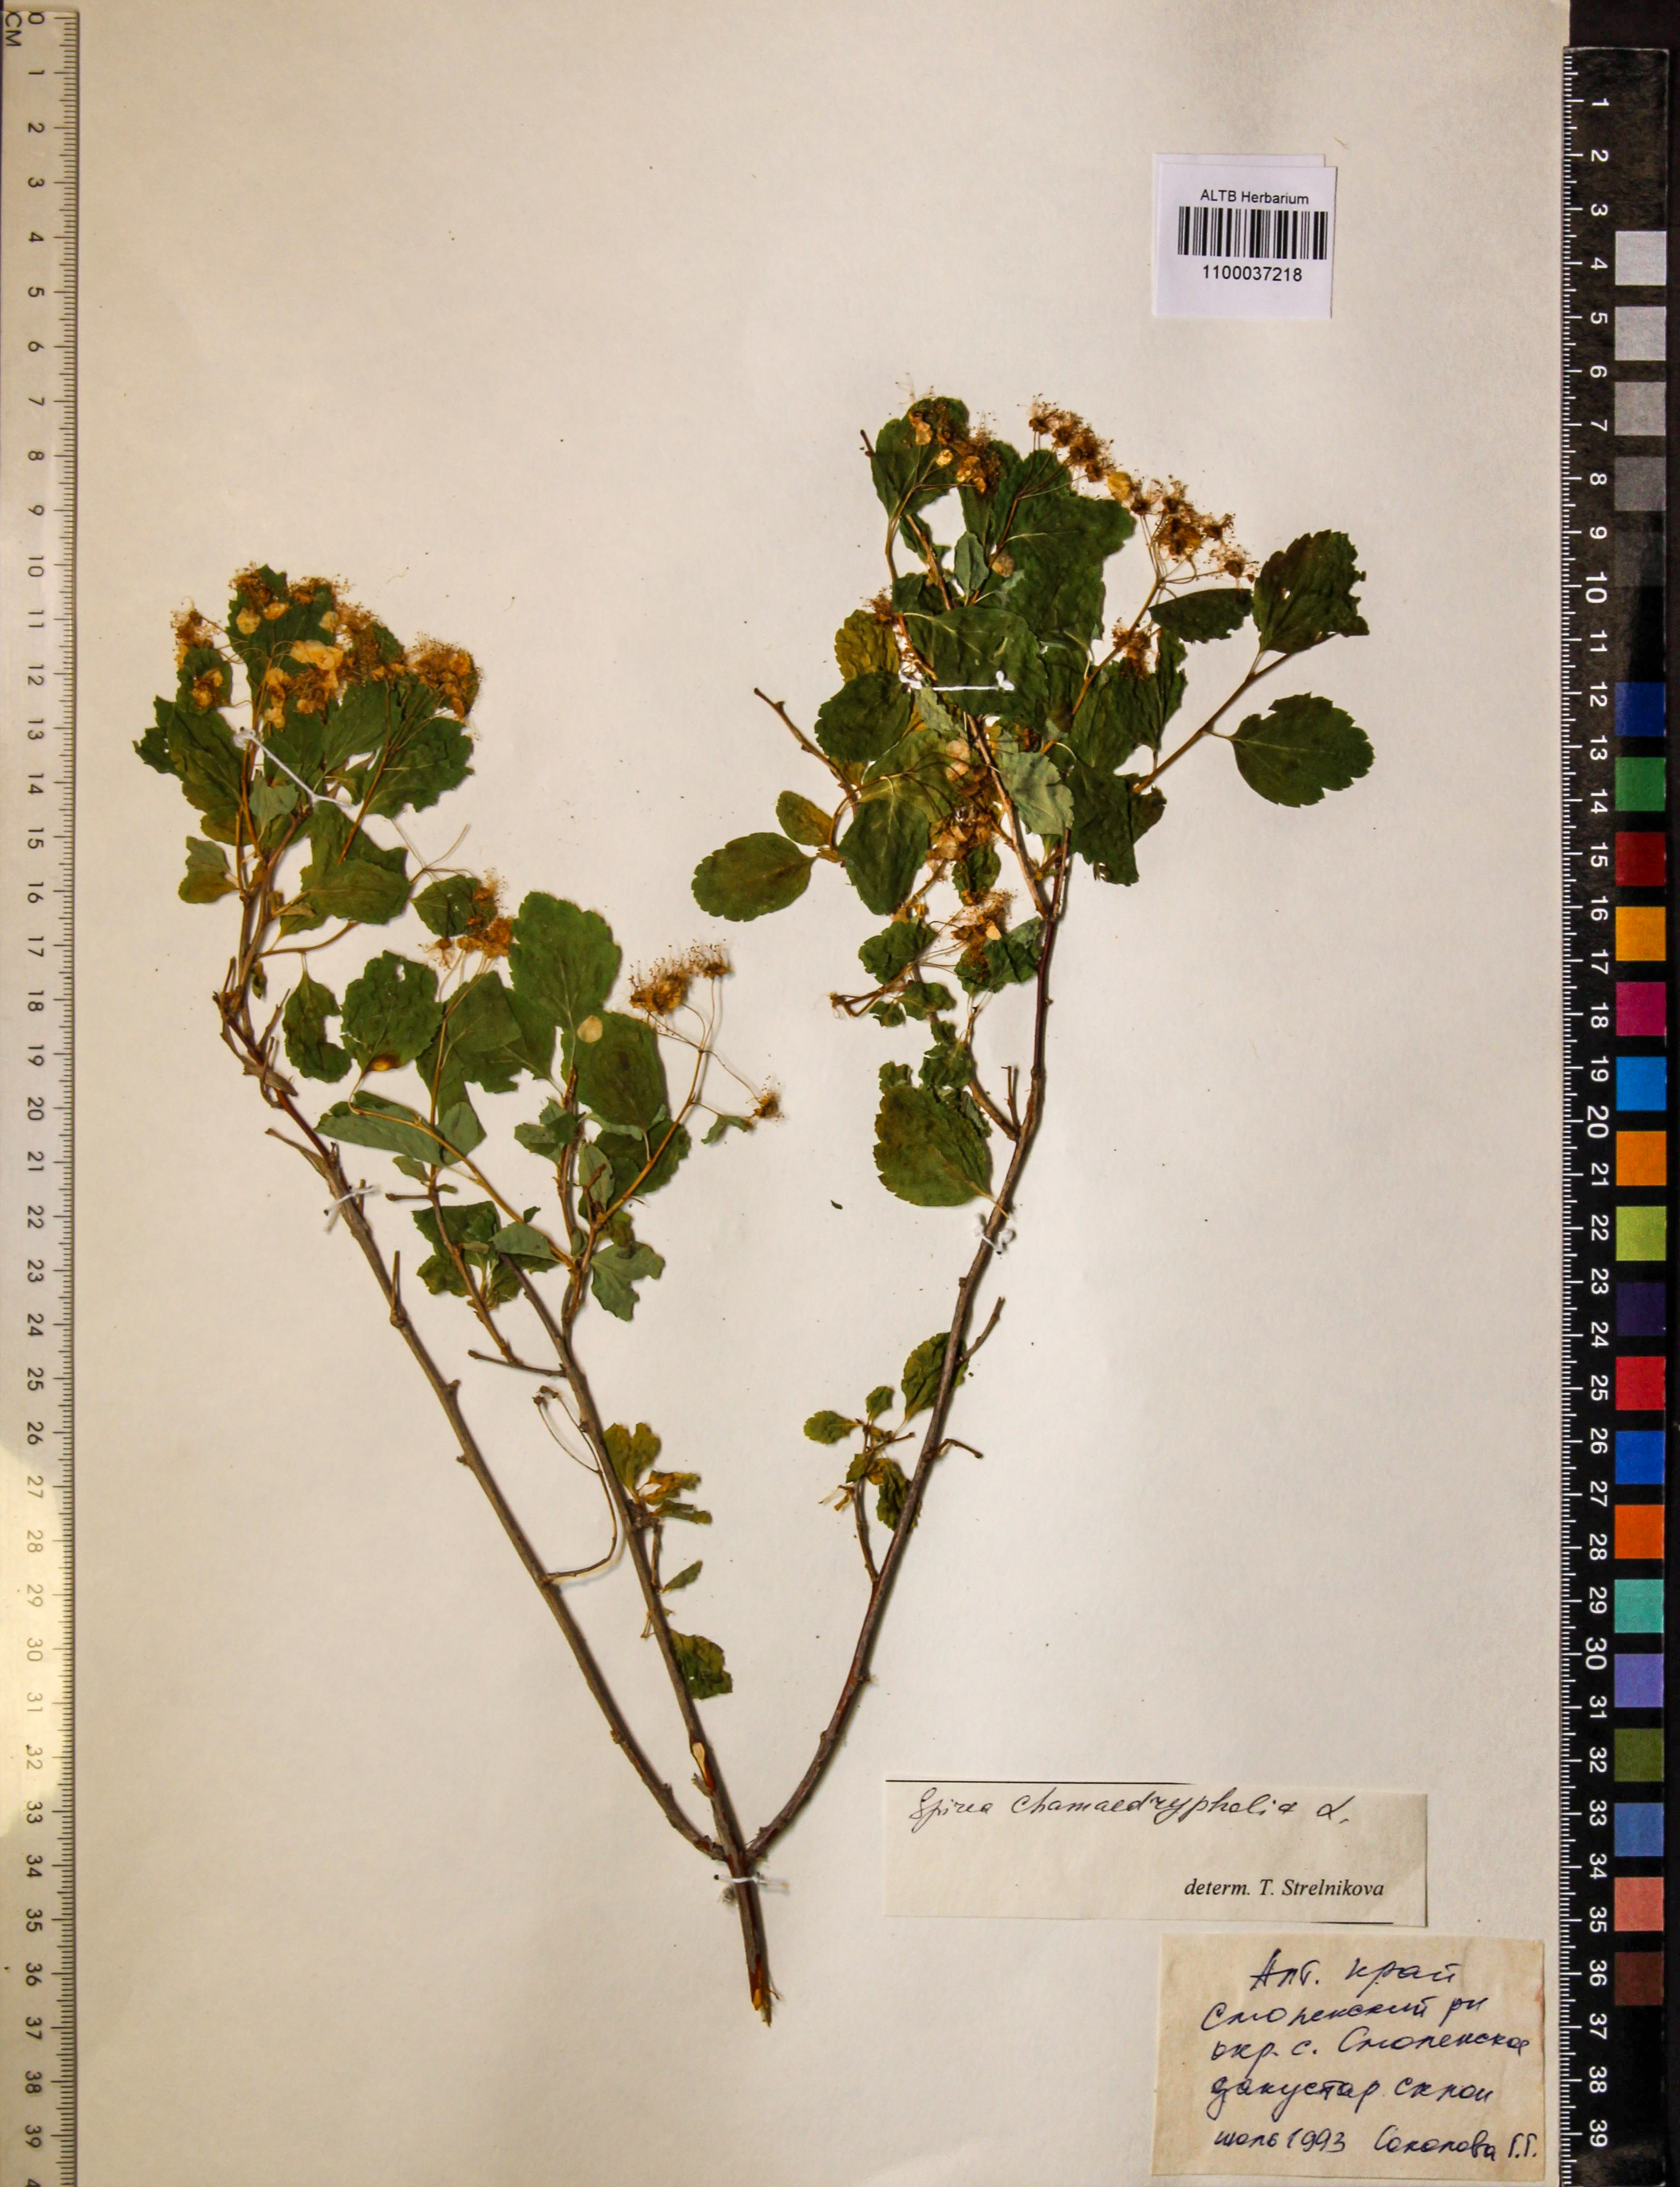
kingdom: Plantae
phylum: Tracheophyta
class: Magnoliopsida
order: Rosales
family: Rosaceae
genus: Spiraea
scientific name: Spiraea chamaedryfolia
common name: Elm-leaved spiraea
